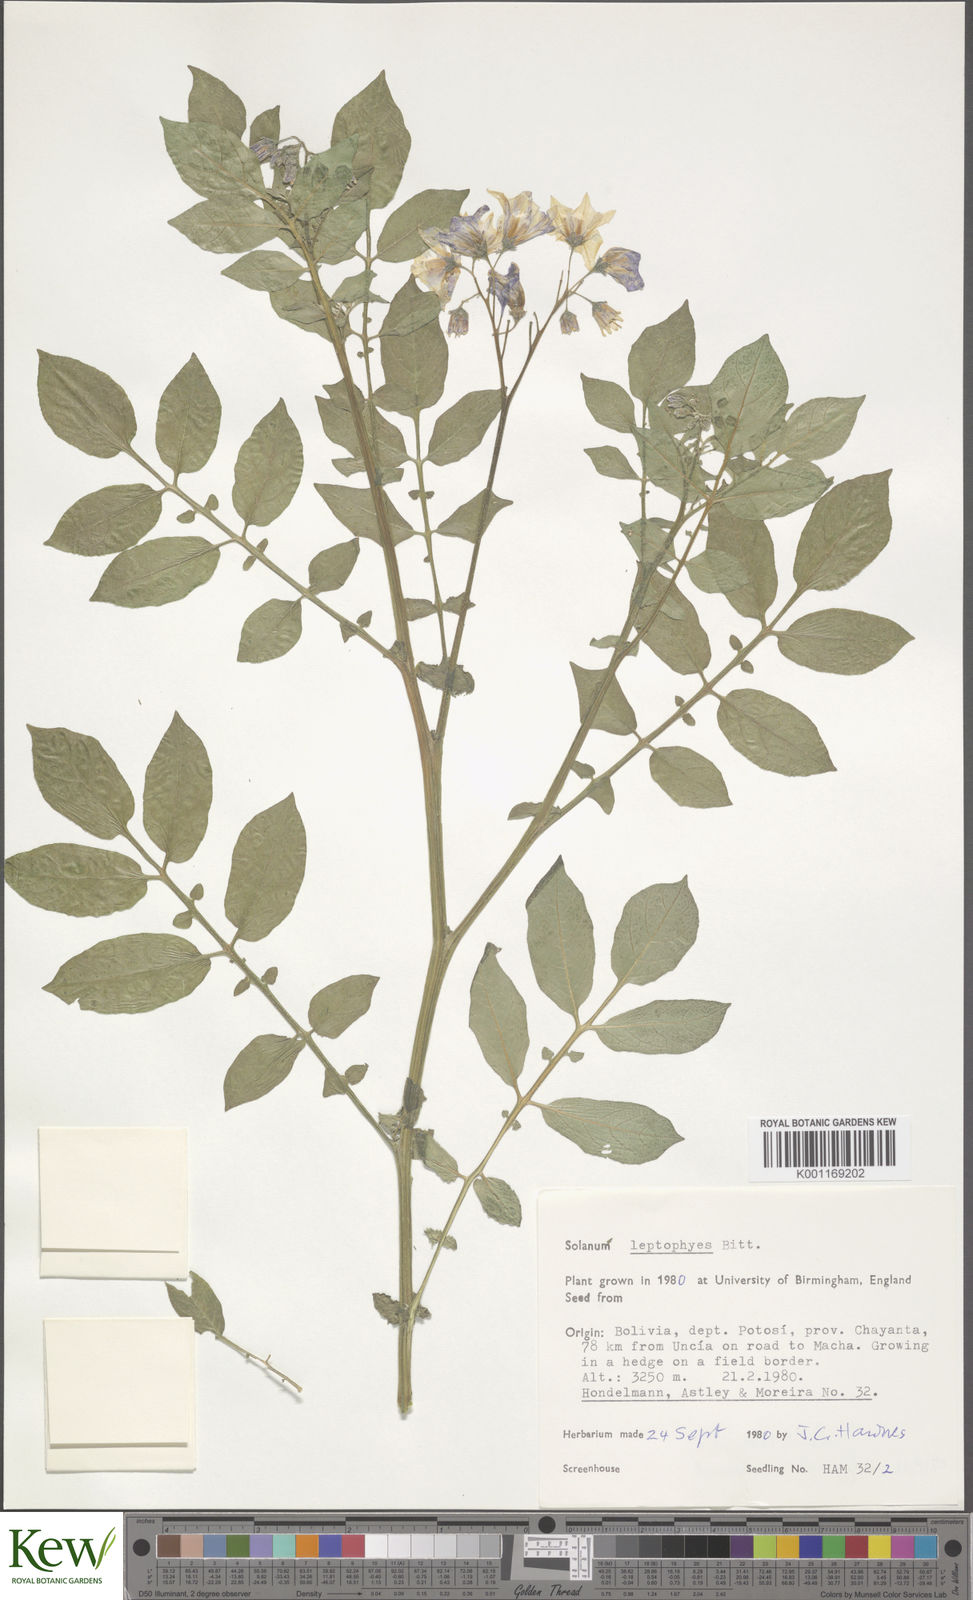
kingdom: Plantae
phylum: Tracheophyta
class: Magnoliopsida
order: Solanales
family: Solanaceae
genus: Solanum
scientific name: Solanum brevicaule
